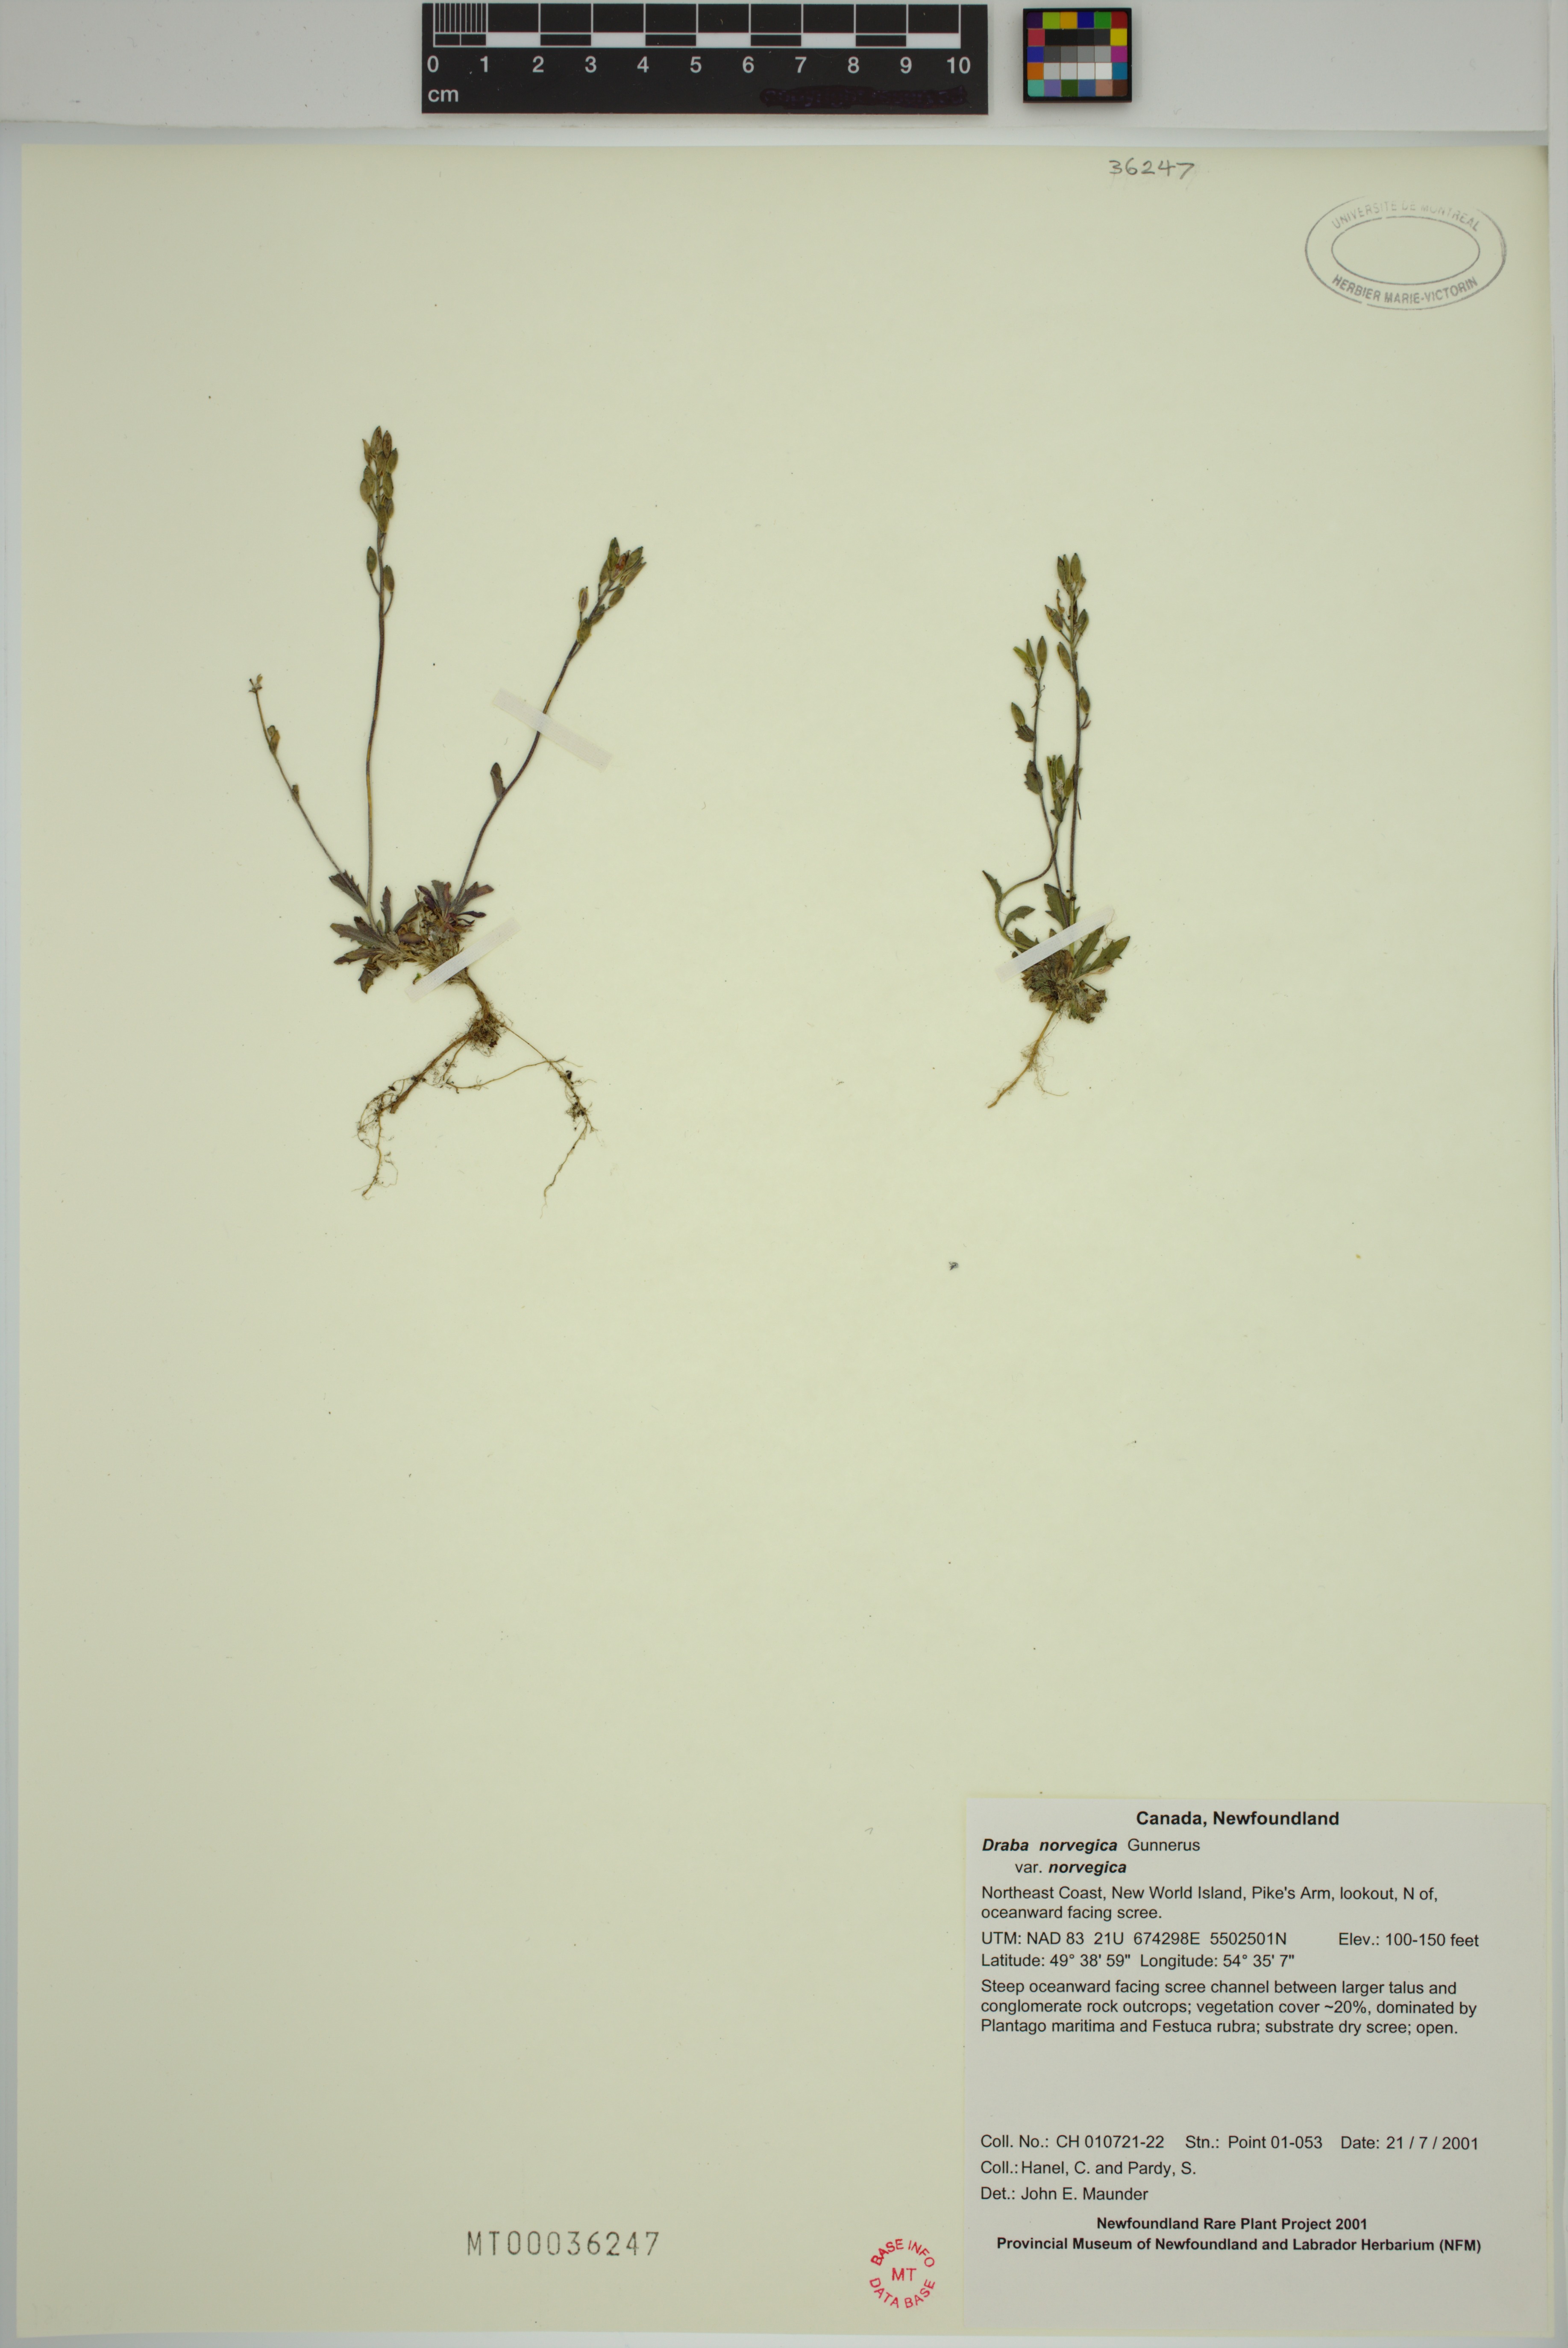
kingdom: Plantae
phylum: Tracheophyta
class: Magnoliopsida
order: Brassicales
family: Brassicaceae
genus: Draba
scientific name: Draba norvegica
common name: Rock whitlowgrass
